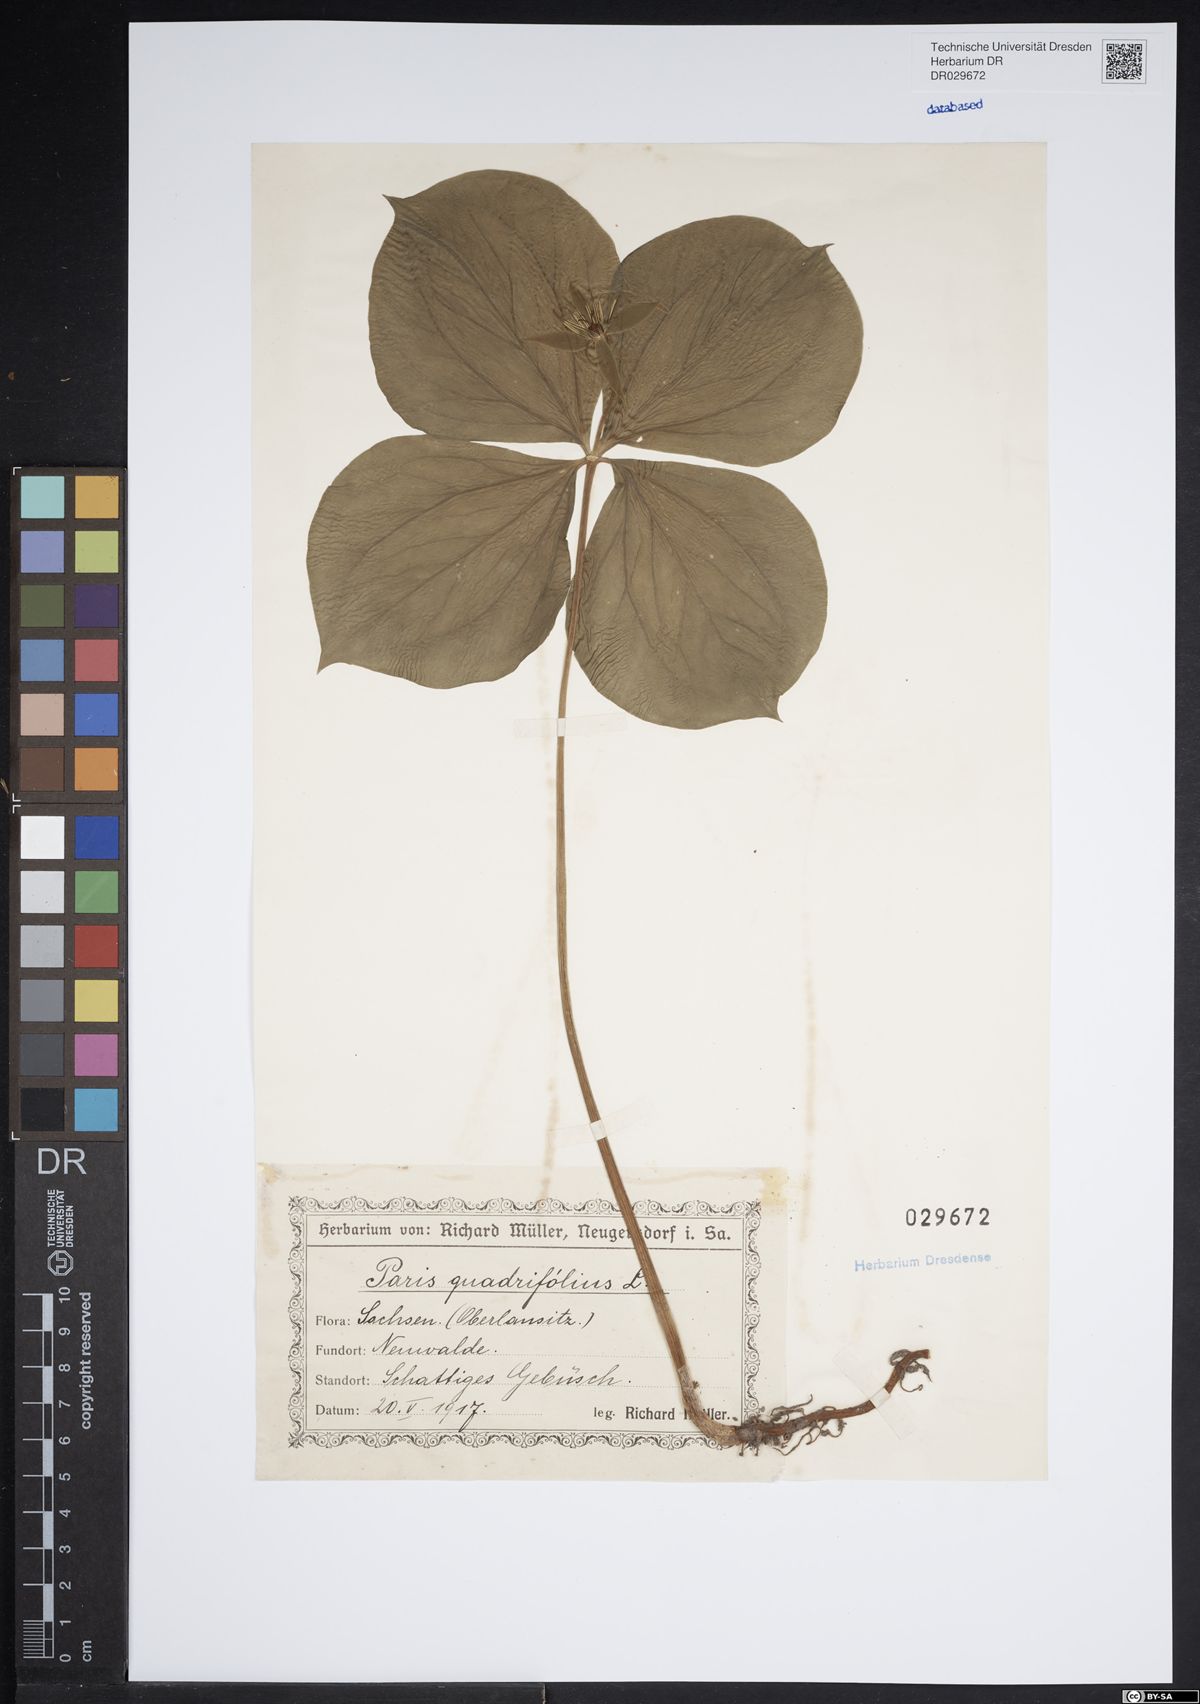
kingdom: Plantae
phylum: Tracheophyta
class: Liliopsida
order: Liliales
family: Melanthiaceae
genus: Paris
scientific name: Paris quadrifolia
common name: Herb-paris
